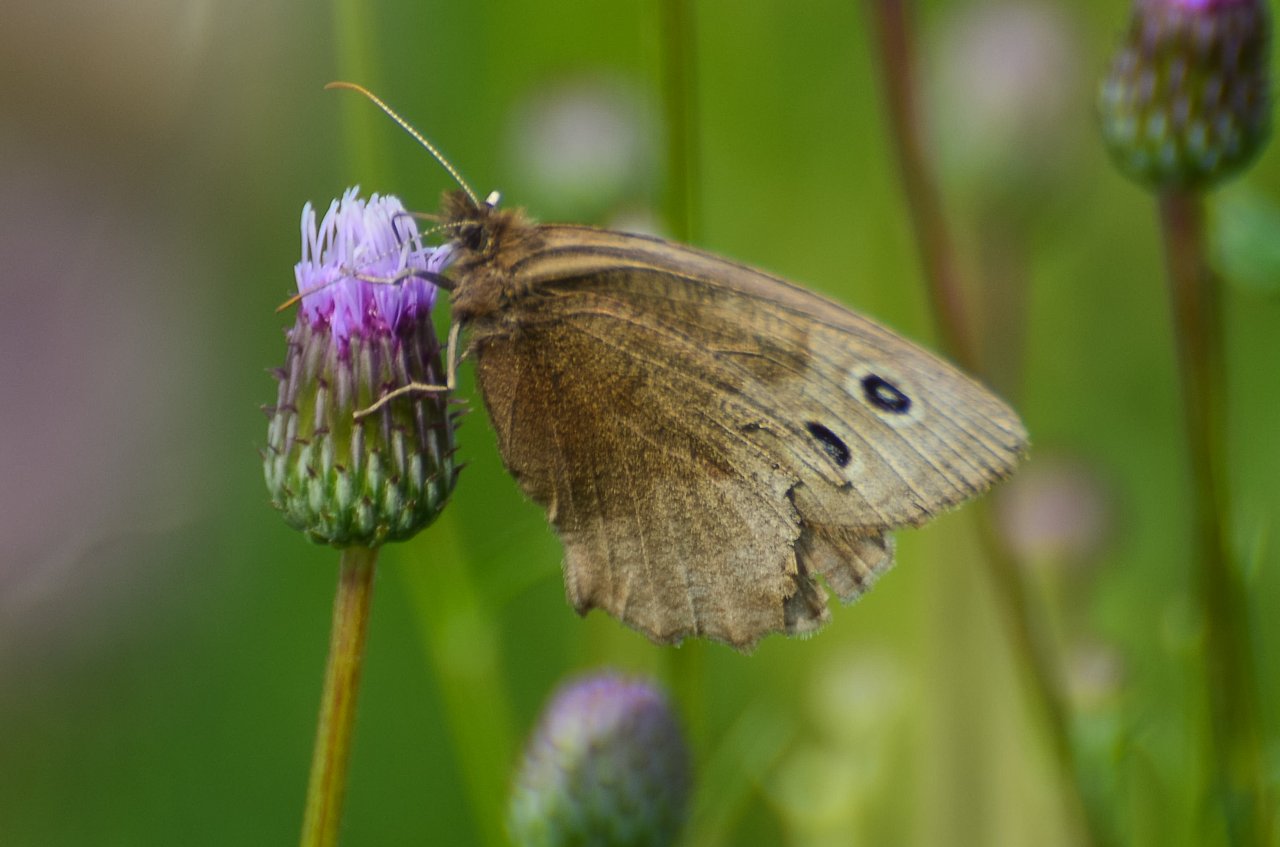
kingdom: Animalia
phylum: Arthropoda
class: Insecta
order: Lepidoptera
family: Nymphalidae
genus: Cercyonis
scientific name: Cercyonis pegala
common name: Common Wood-Nymph
